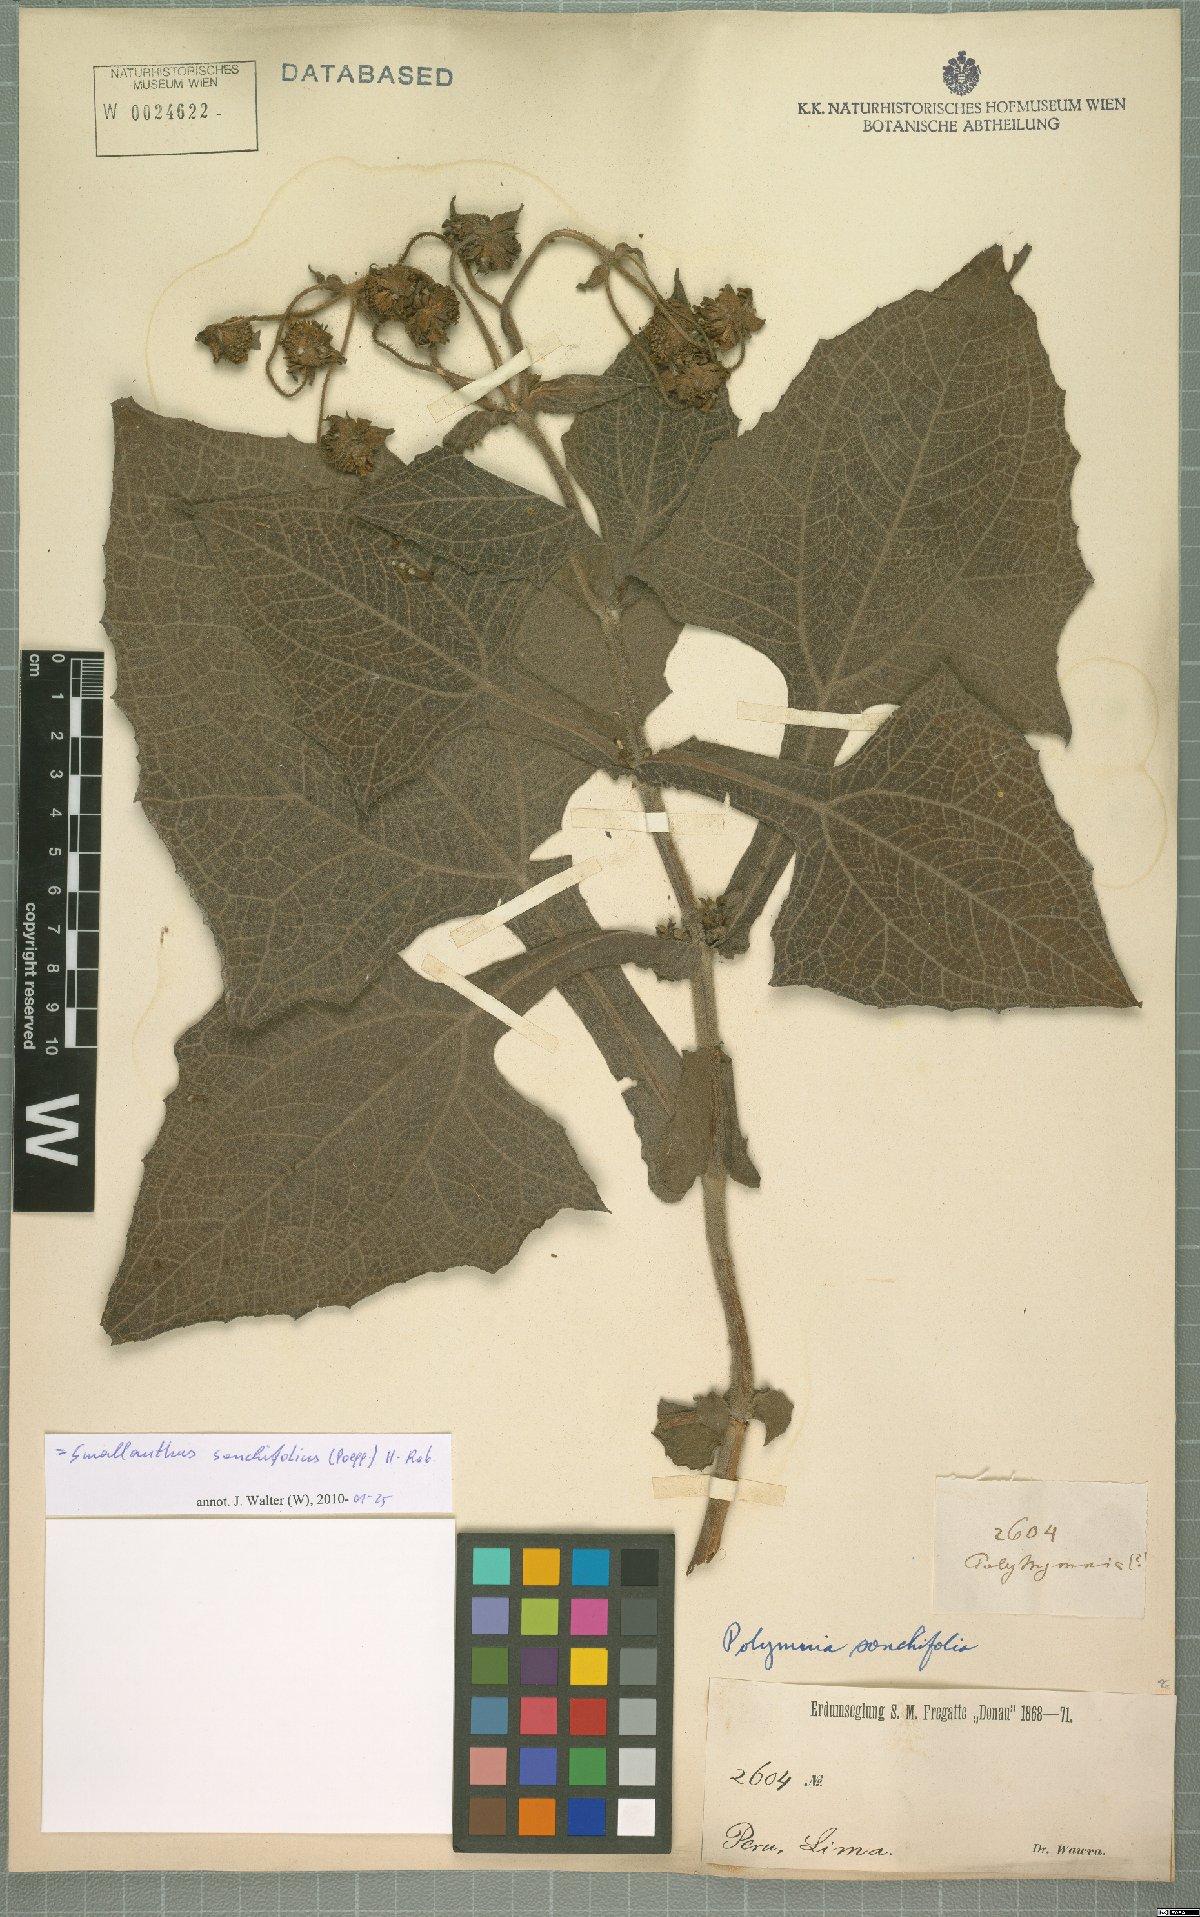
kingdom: Plantae
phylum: Tracheophyta
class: Magnoliopsida
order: Asterales
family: Asteraceae
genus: Smallanthus
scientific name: Smallanthus sonchifolius
